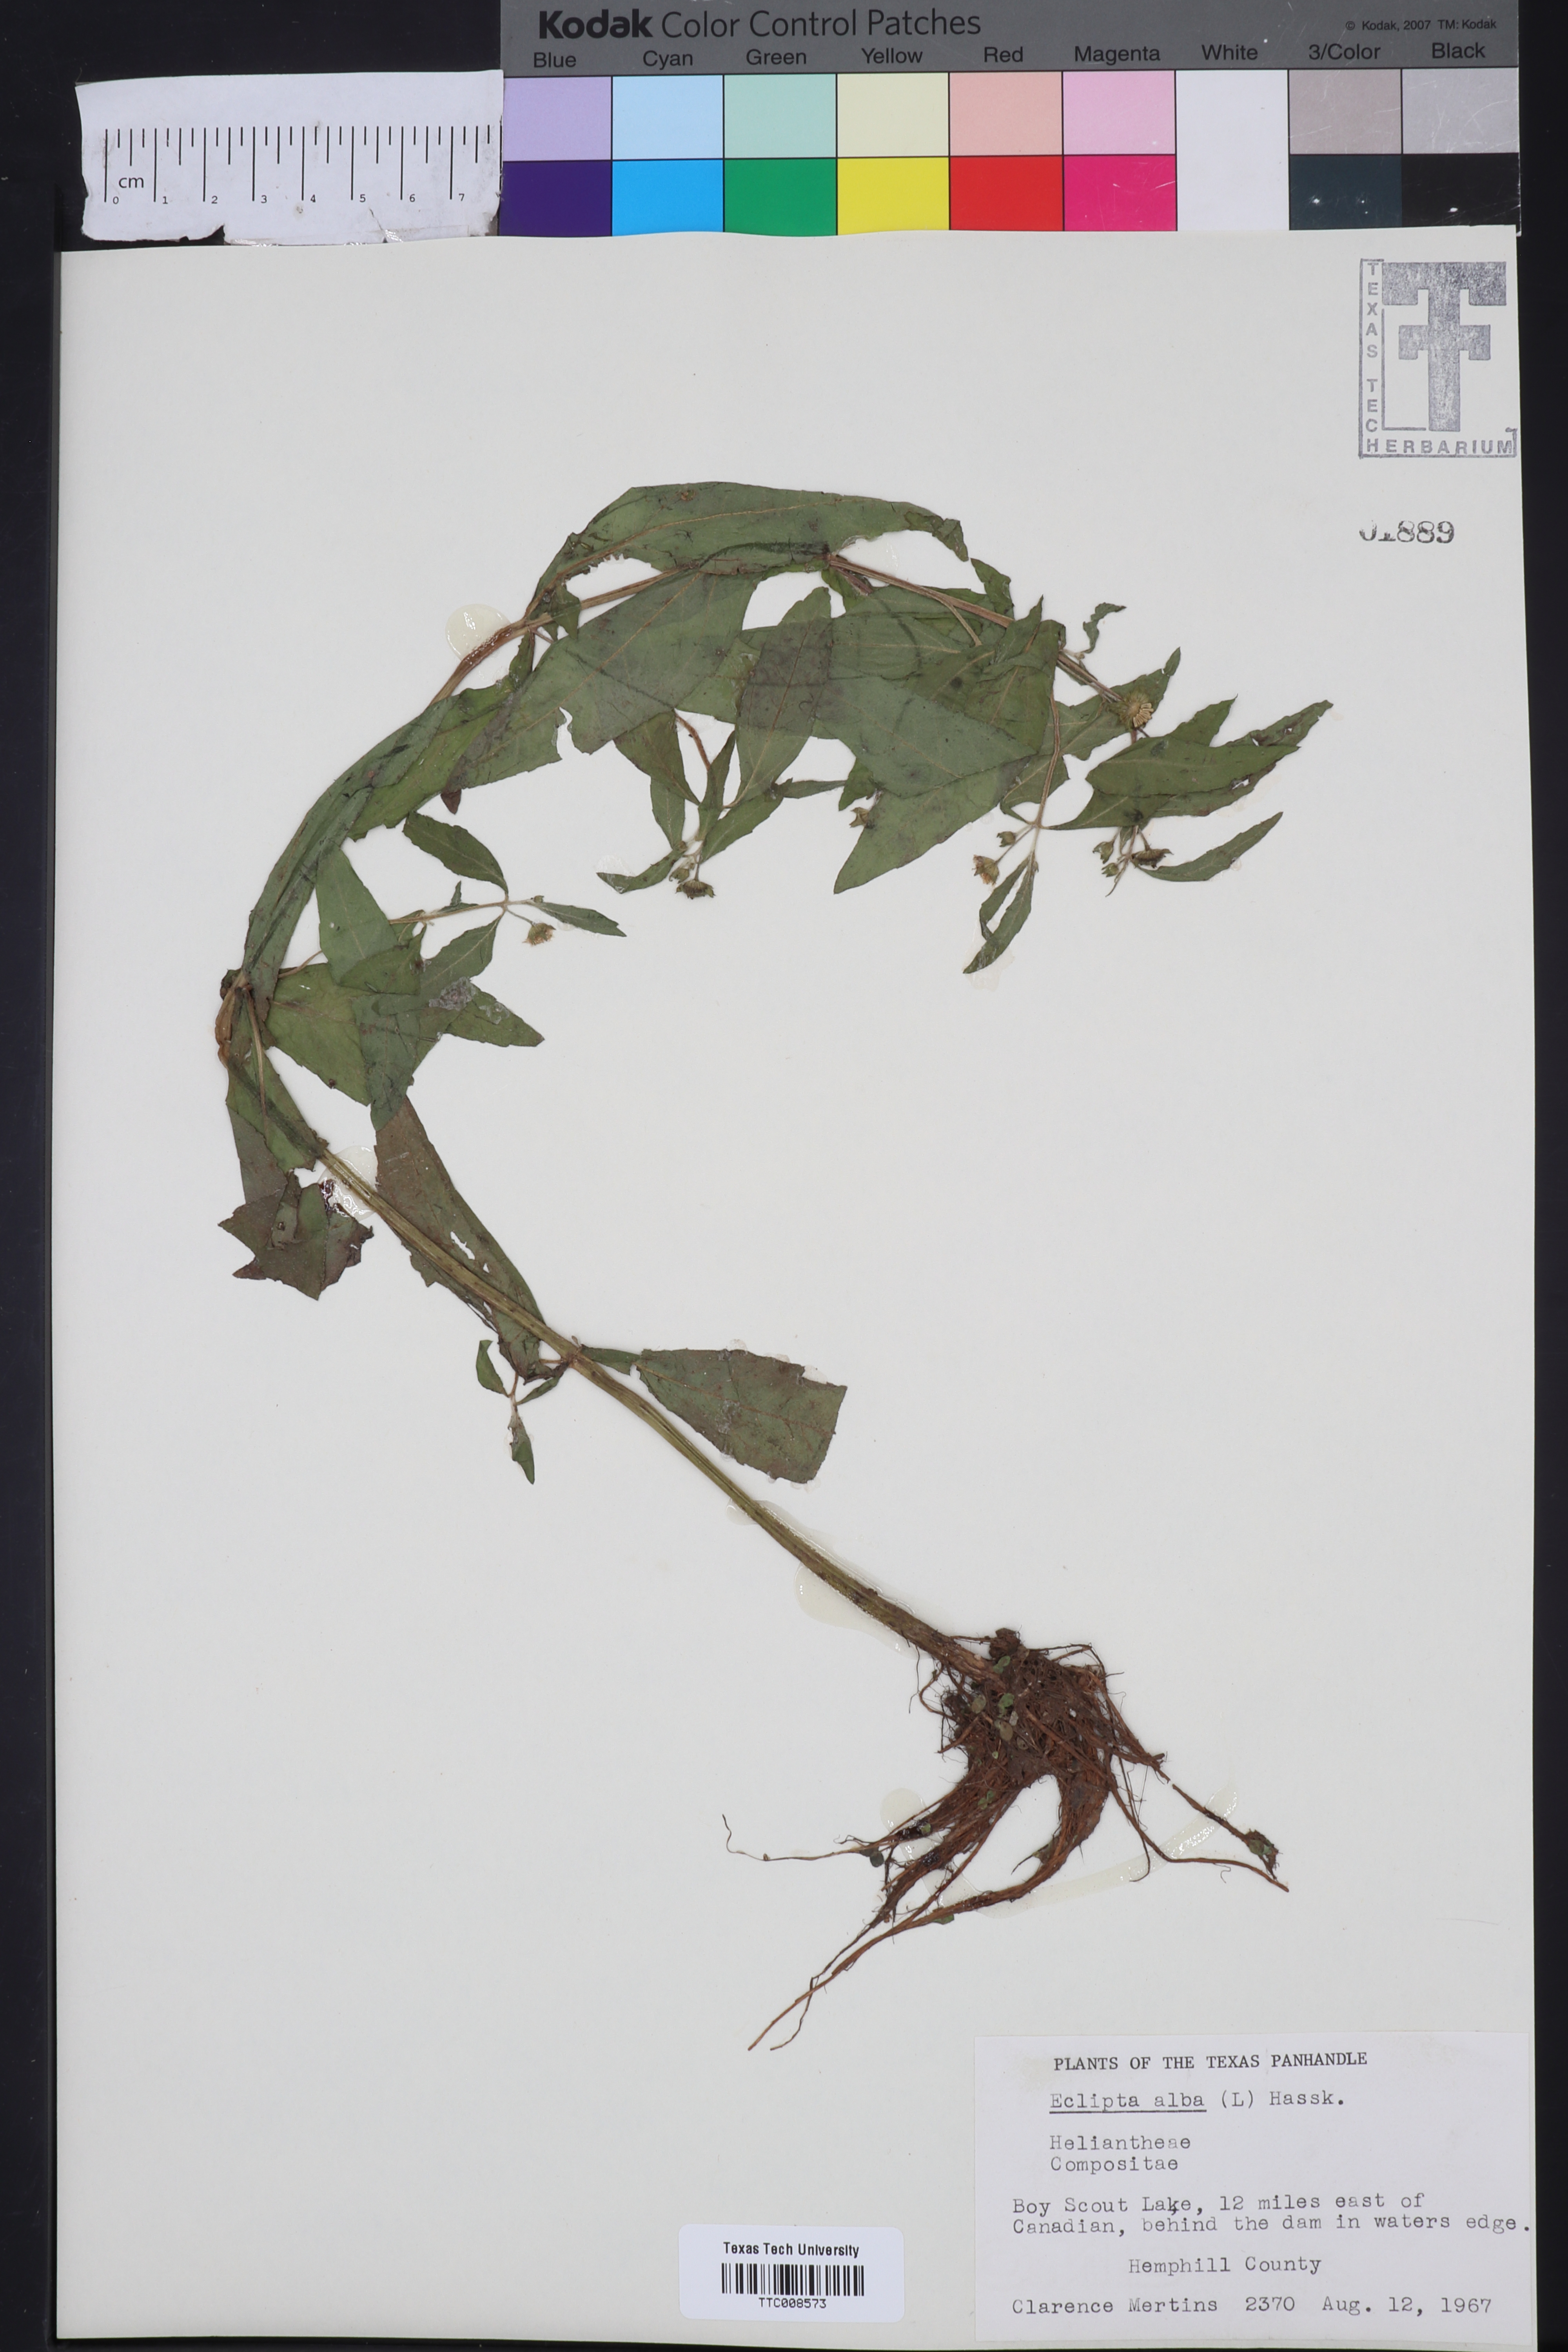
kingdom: Plantae
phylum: Tracheophyta
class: Magnoliopsida
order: Asterales
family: Asteraceae
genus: Eclipta
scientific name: Eclipta alba
